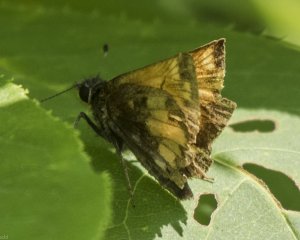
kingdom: Animalia
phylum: Arthropoda
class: Insecta
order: Lepidoptera
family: Hesperiidae
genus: Lon
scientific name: Lon hobomok
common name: Hobomok Skipper
